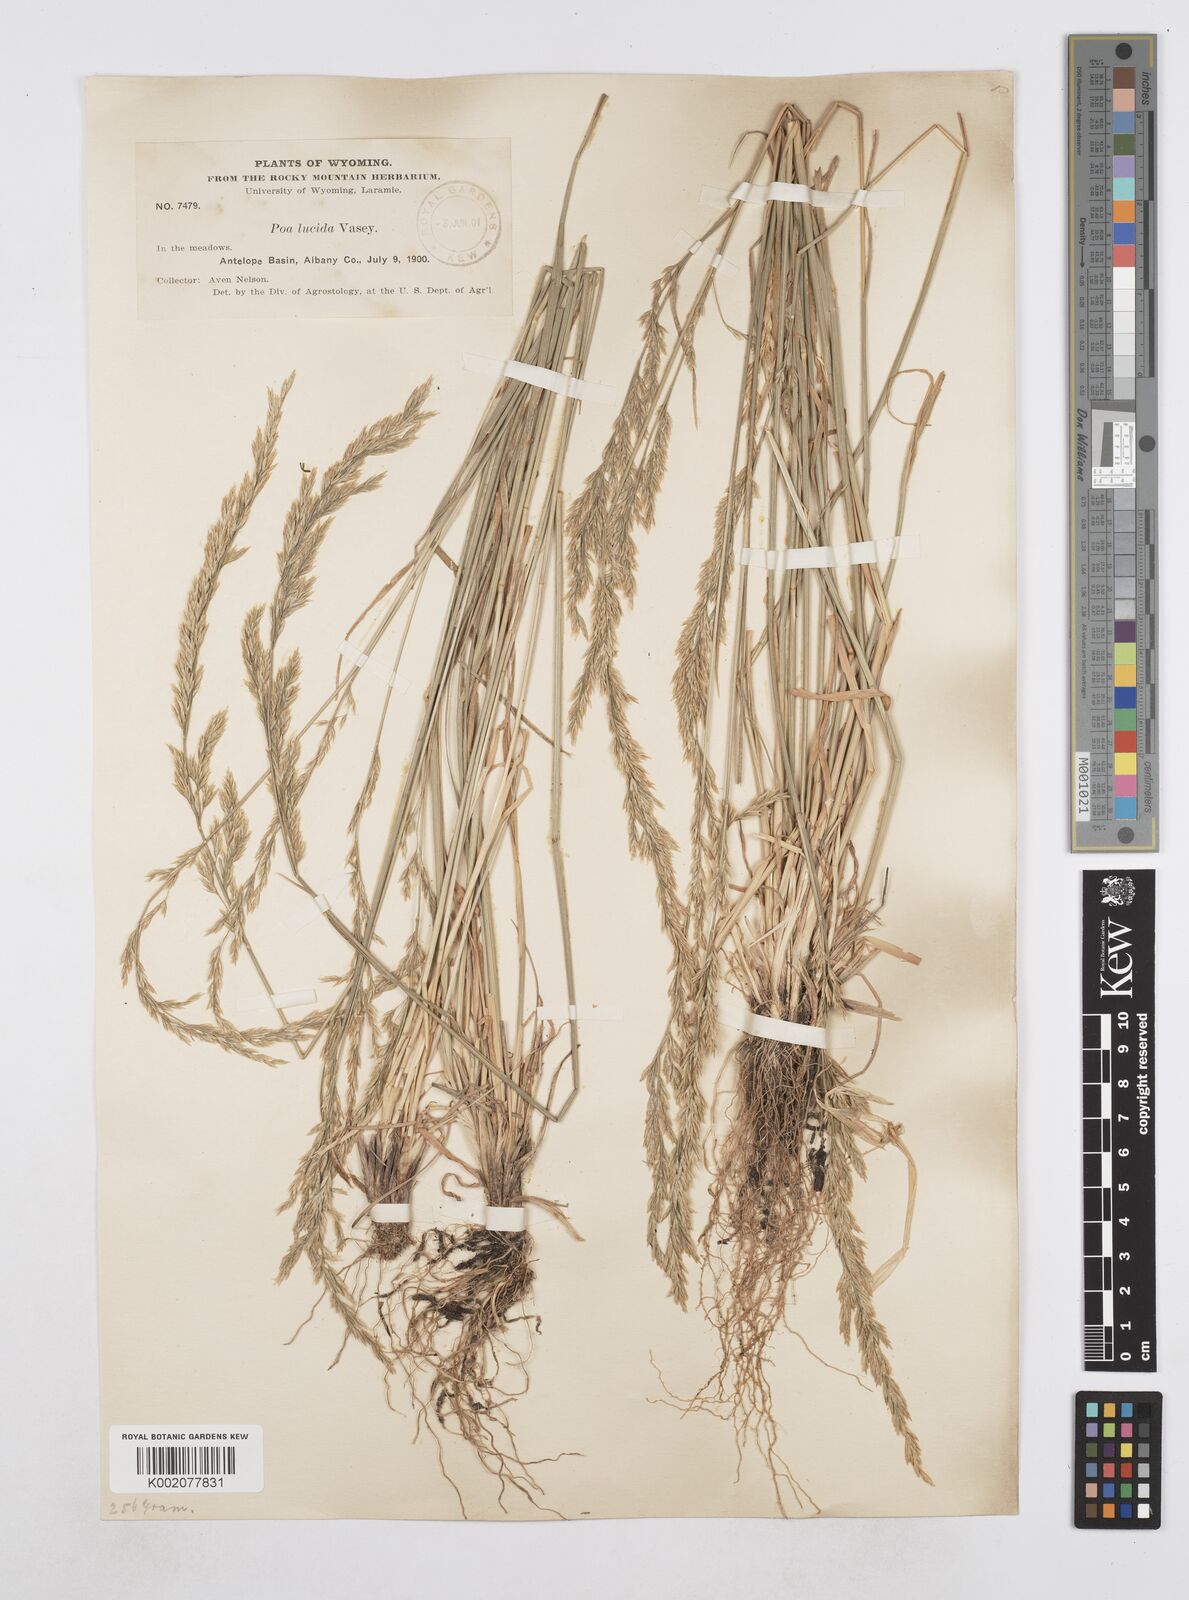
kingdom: Plantae
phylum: Tracheophyta
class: Liliopsida
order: Poales
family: Poaceae
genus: Poa
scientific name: Poa secunda
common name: Sandberg bluegrass
